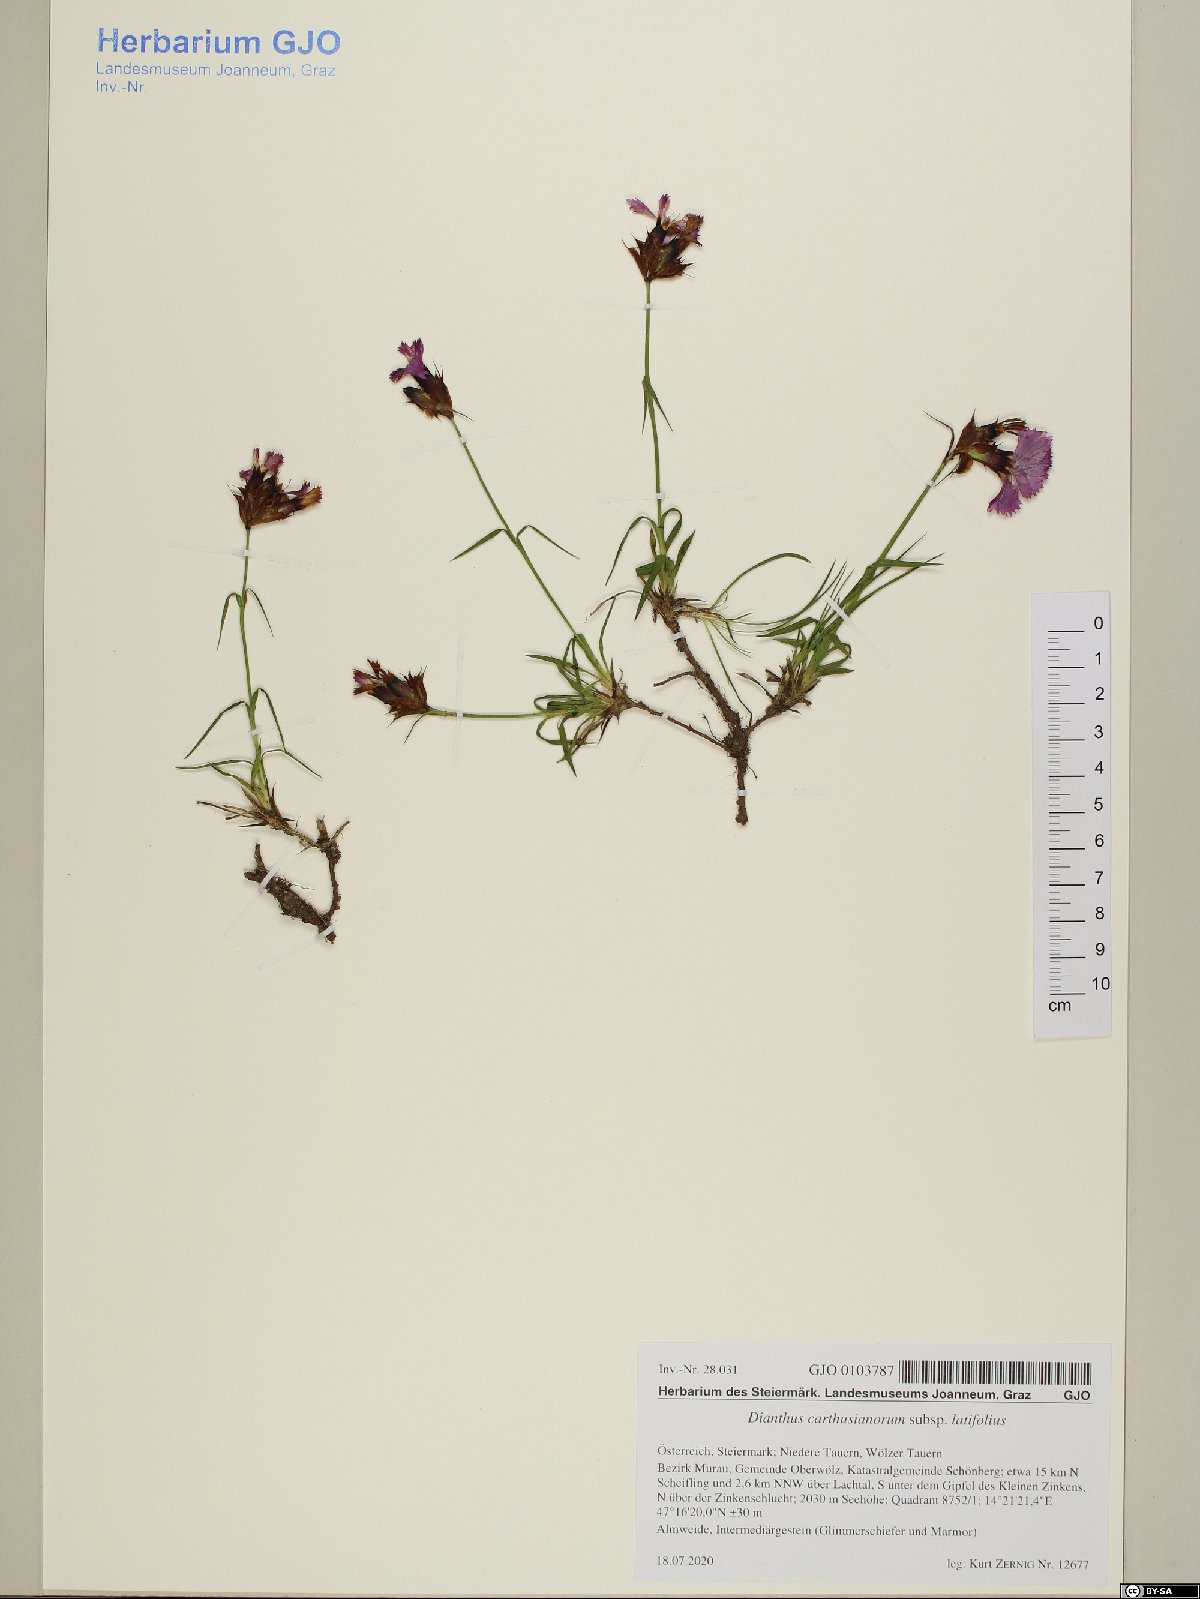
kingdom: Plantae
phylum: Tracheophyta
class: Magnoliopsida
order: Caryophyllales
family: Caryophyllaceae
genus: Dianthus
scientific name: Dianthus carthusianorum
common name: Carthusian pink
